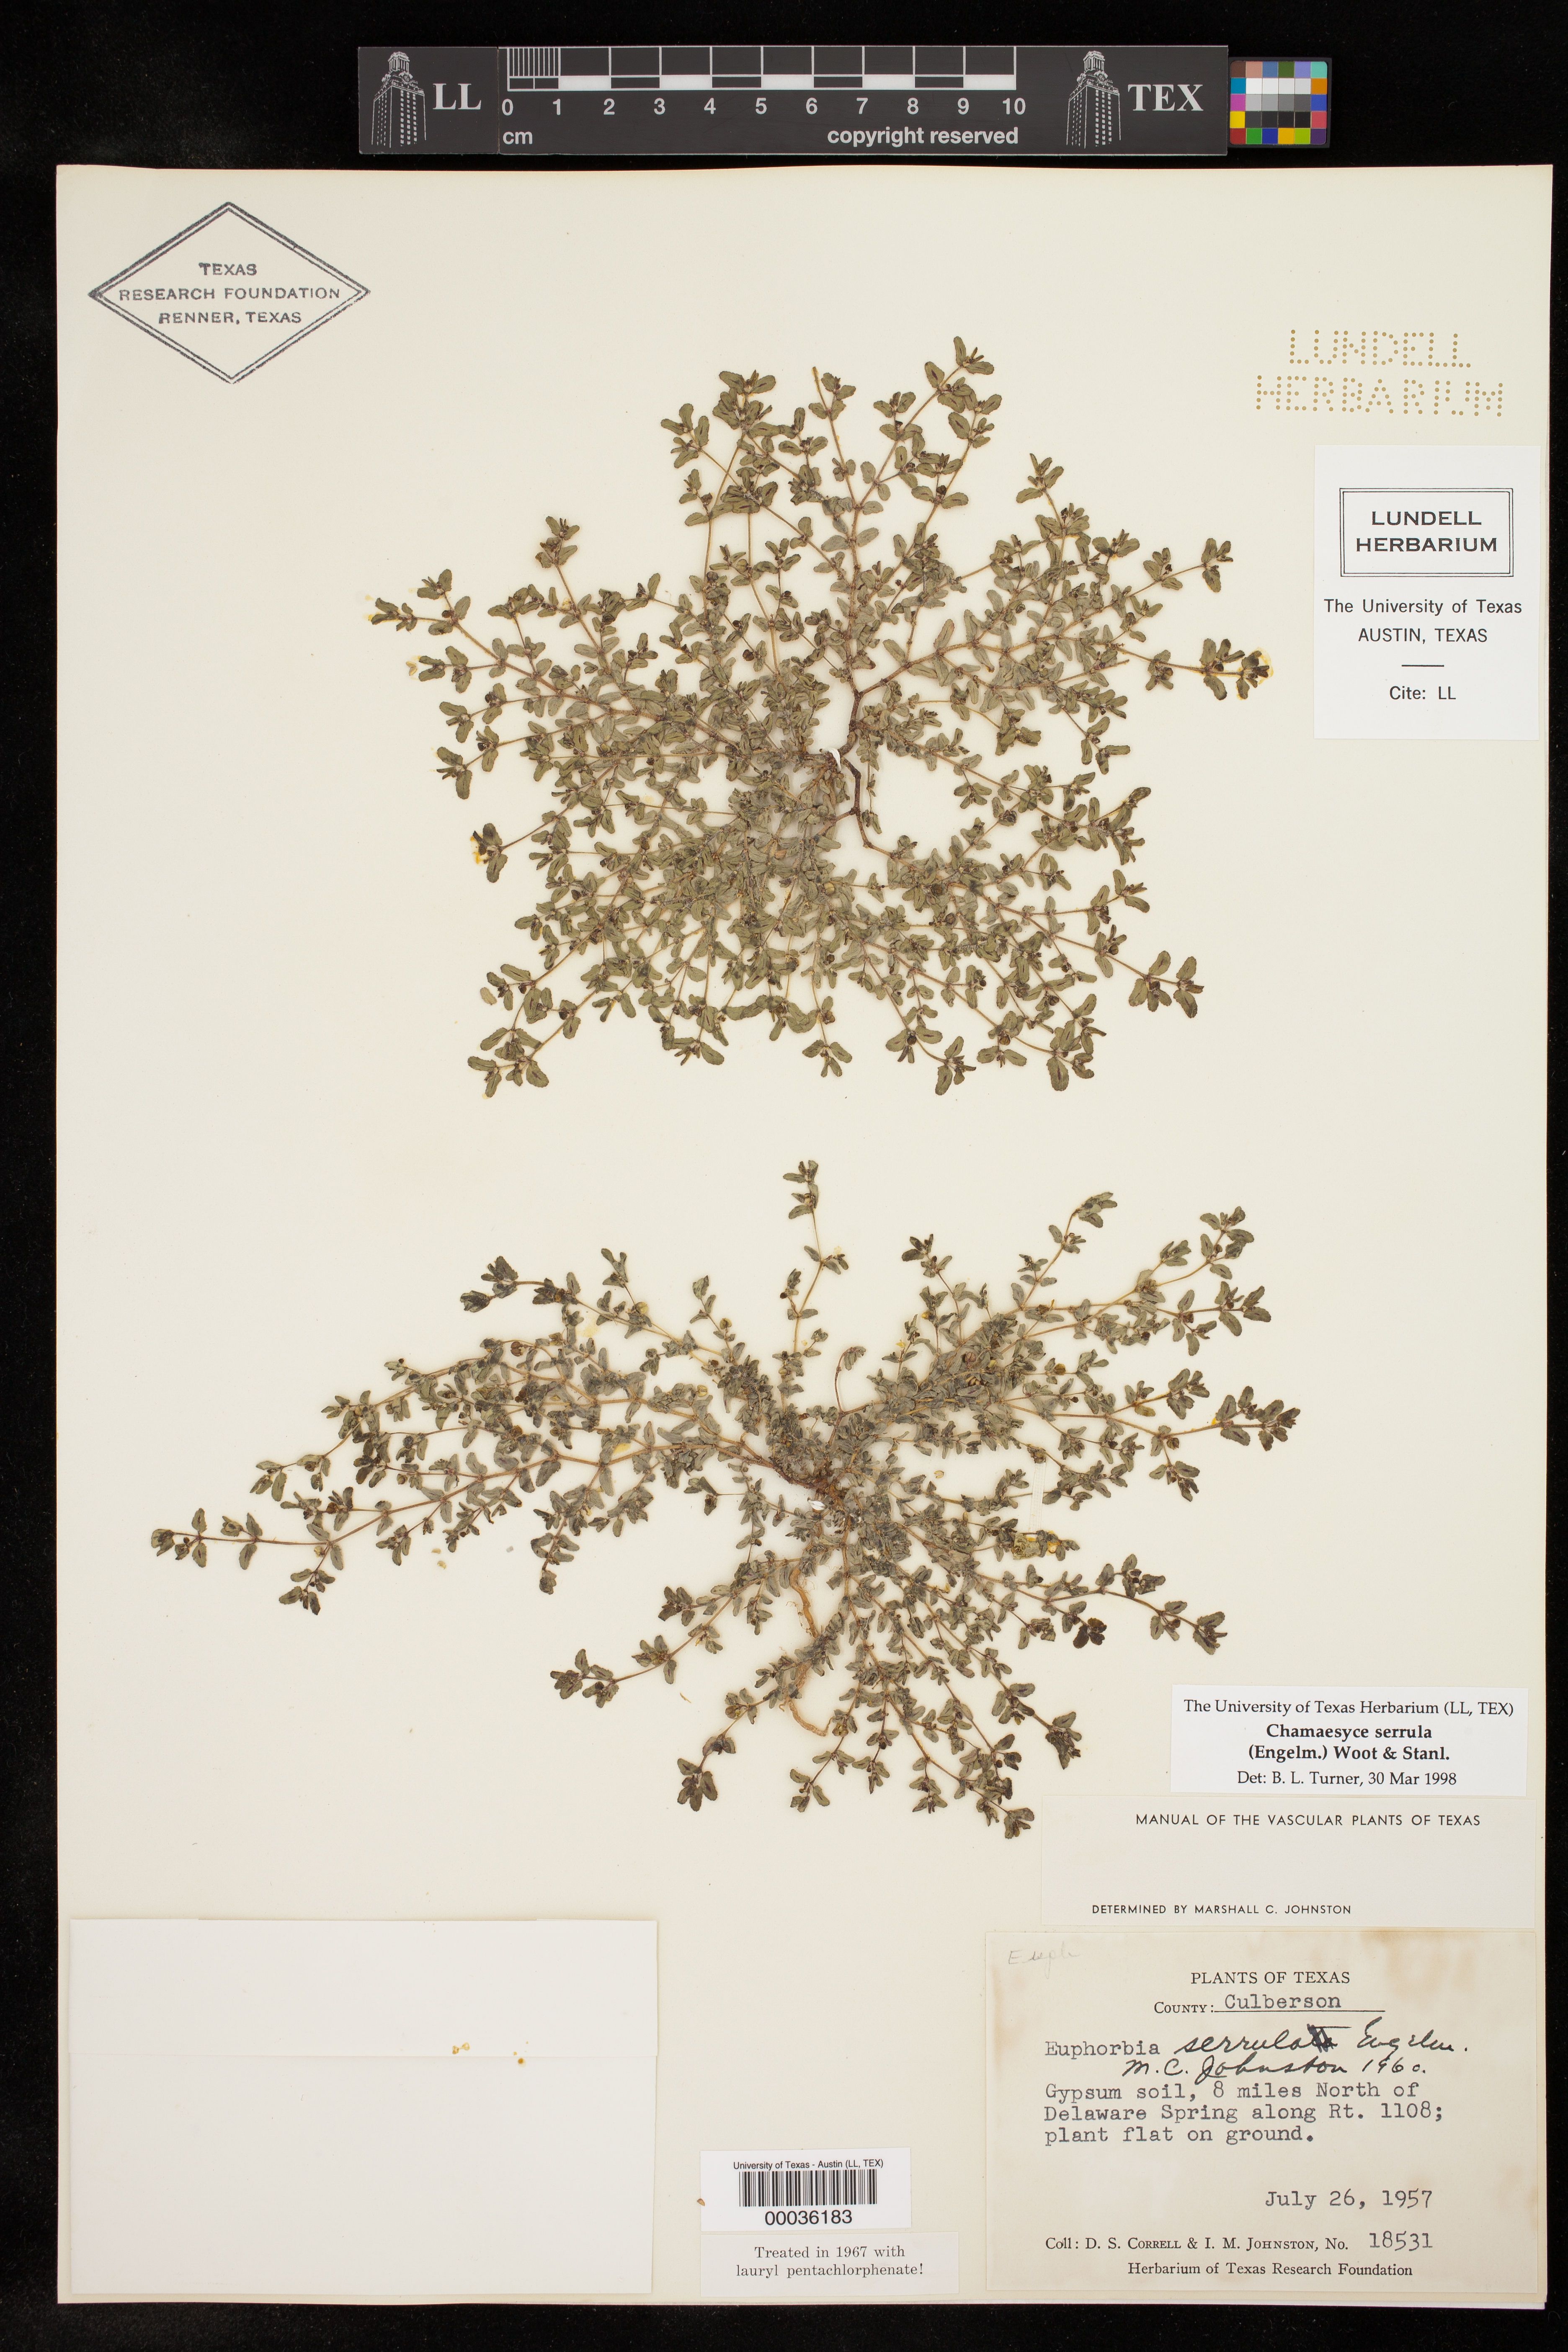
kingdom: Plantae
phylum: Tracheophyta
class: Magnoliopsida
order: Malpighiales
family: Euphorbiaceae
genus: Euphorbia
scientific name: Euphorbia serrula
